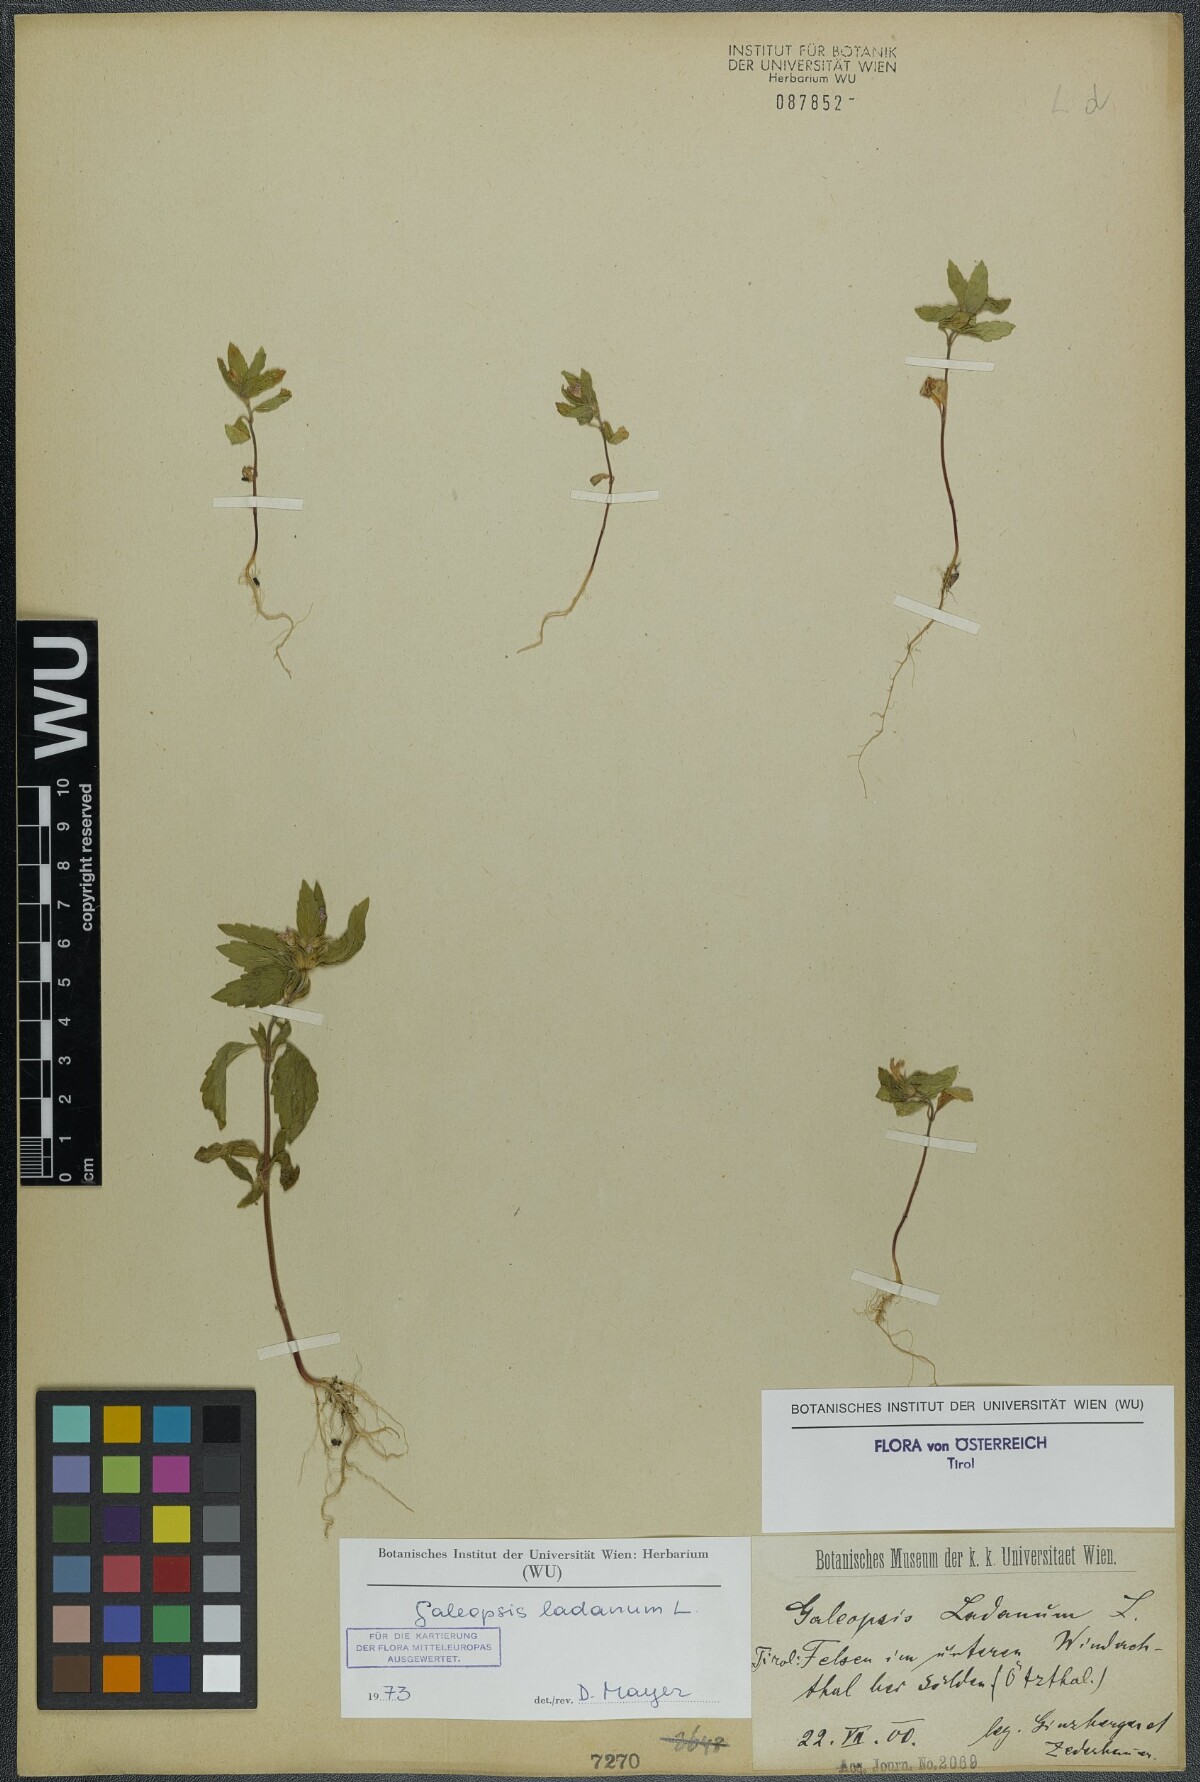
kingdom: Plantae
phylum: Tracheophyta
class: Magnoliopsida
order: Lamiales
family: Lamiaceae
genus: Galeopsis
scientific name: Galeopsis ladanum
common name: Broad-leaved hemp-nettle
